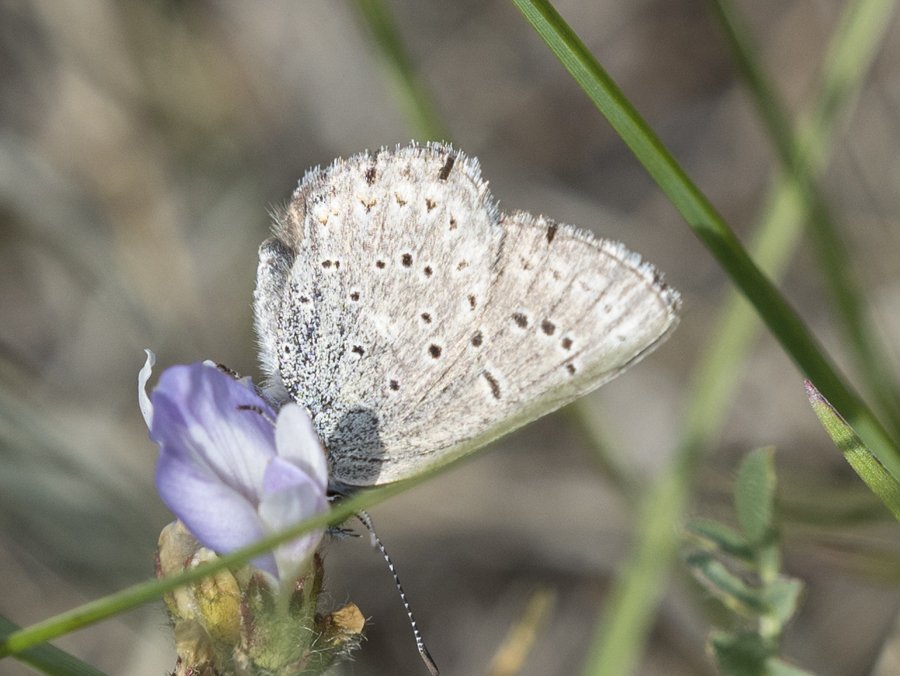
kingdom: Animalia
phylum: Arthropoda
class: Insecta
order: Lepidoptera
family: Lycaenidae
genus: Plebejus
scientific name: Plebejus saepiolus
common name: Greenish Blue
